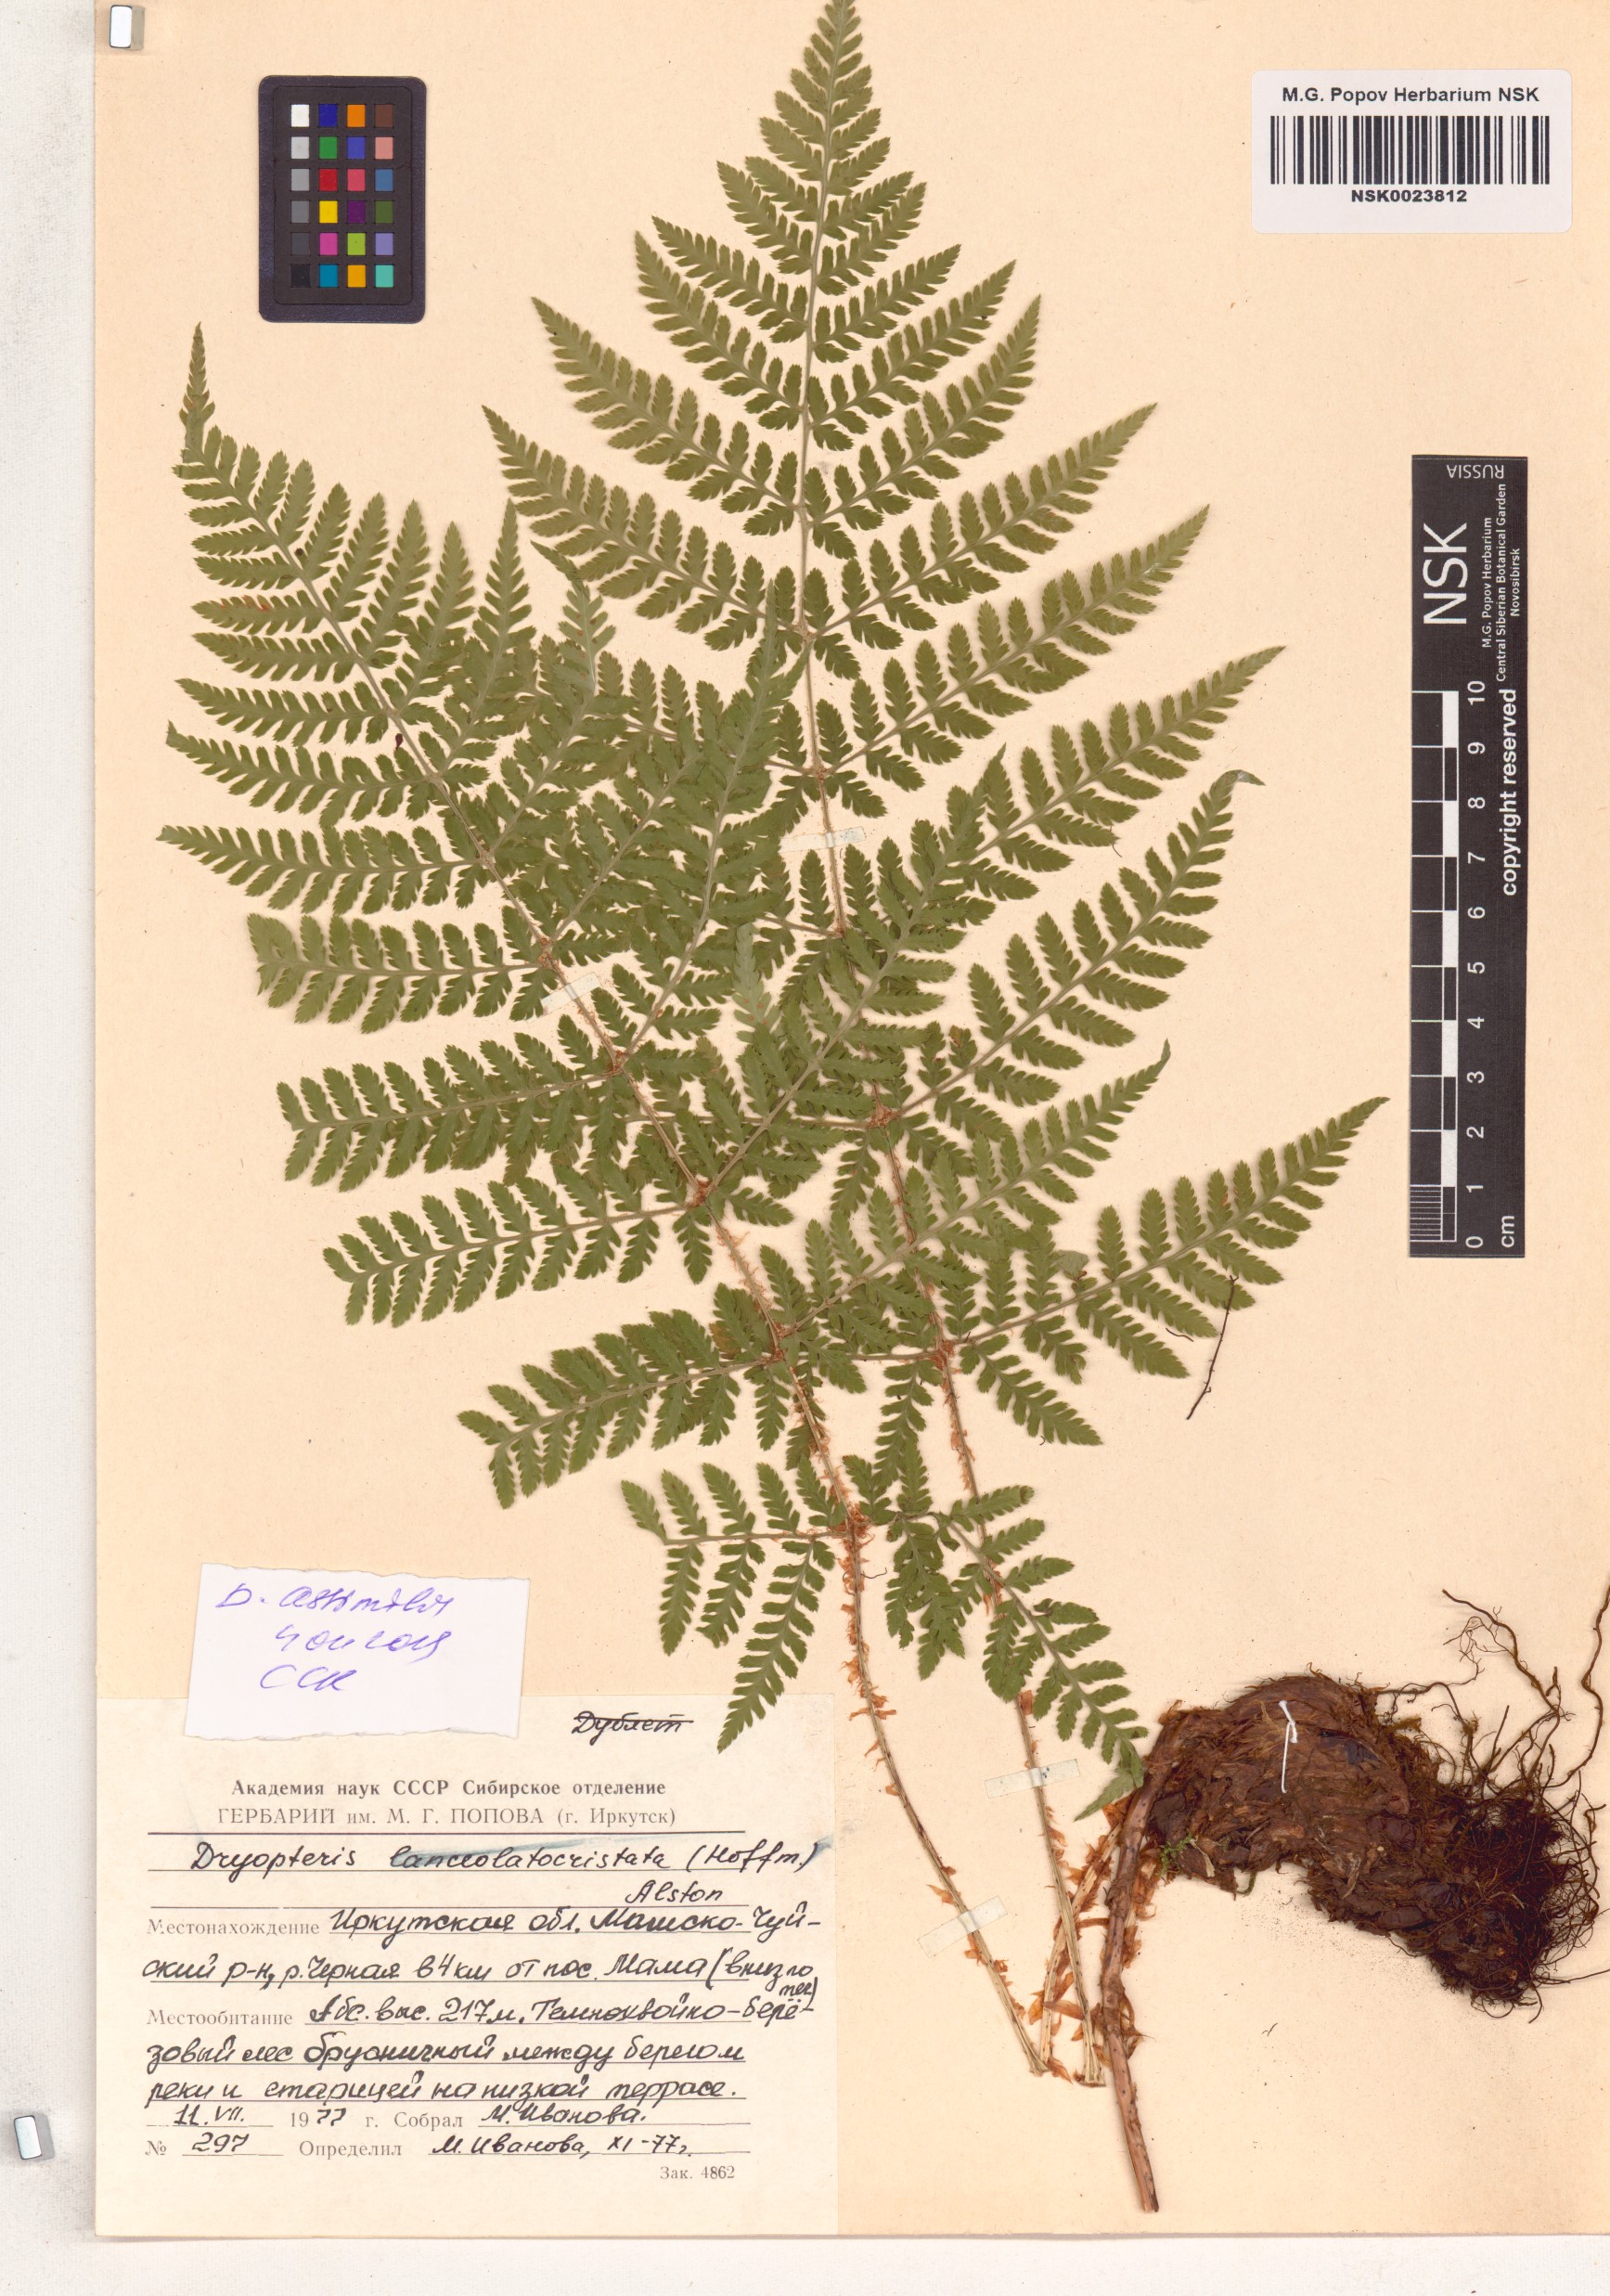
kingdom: Plantae
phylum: Tracheophyta
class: Polypodiopsida
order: Polypodiales
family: Dryopteridaceae
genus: Dryopteris
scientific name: Dryopteris expansa
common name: Northern buckler fern
